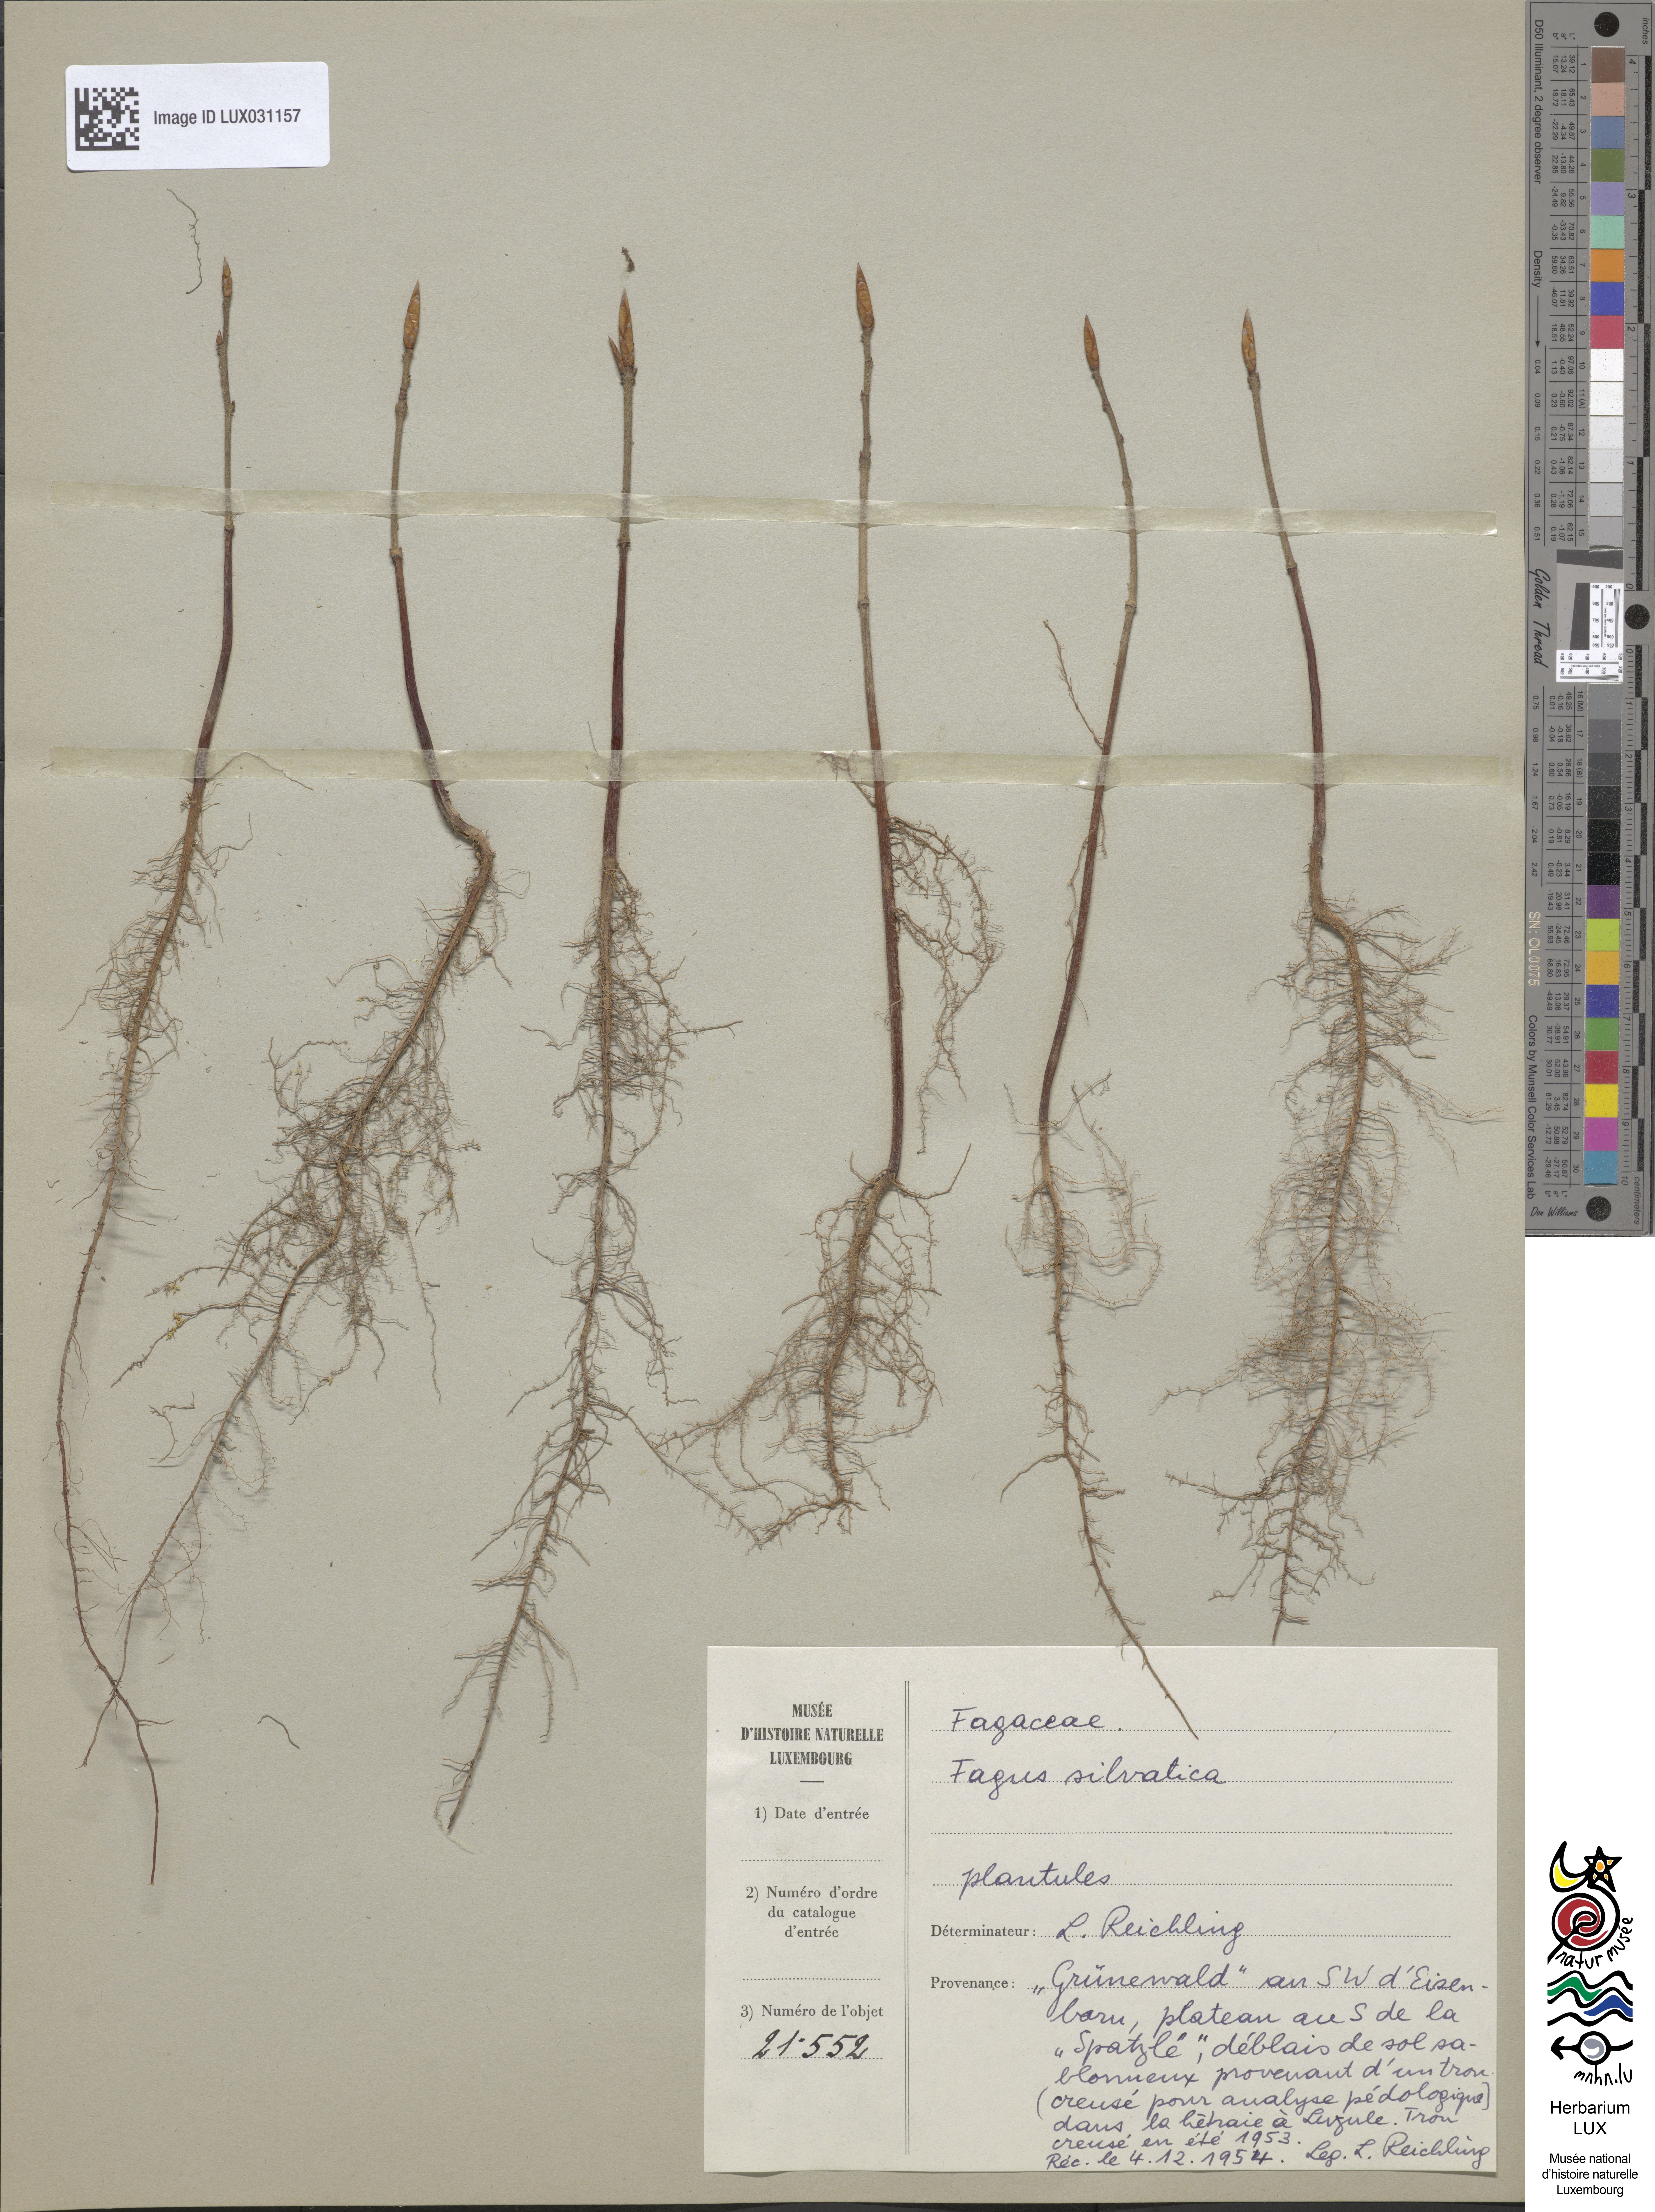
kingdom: Plantae
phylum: Tracheophyta
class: Magnoliopsida
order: Fagales
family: Fagaceae
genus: Fagus
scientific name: Fagus sylvatica
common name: Beech
